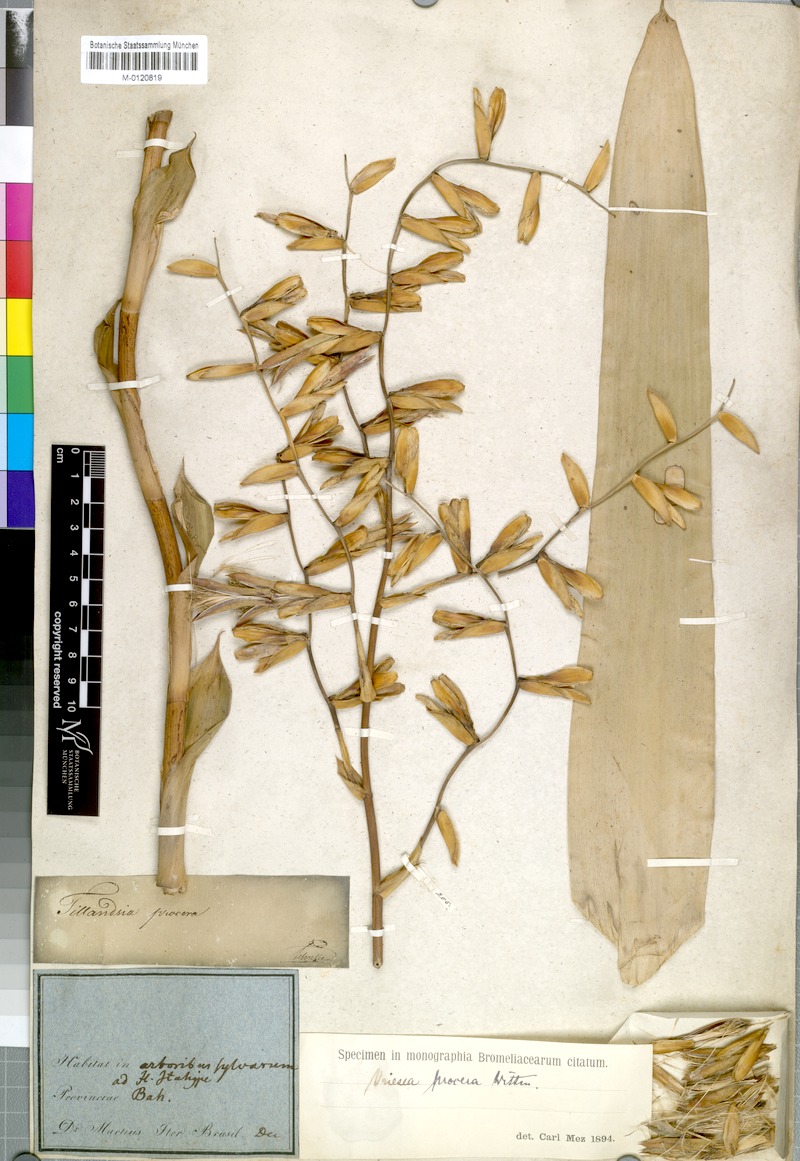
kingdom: Plantae
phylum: Tracheophyta
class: Liliopsida
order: Poales
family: Bromeliaceae
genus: Vriesea
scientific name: Vriesea procera
